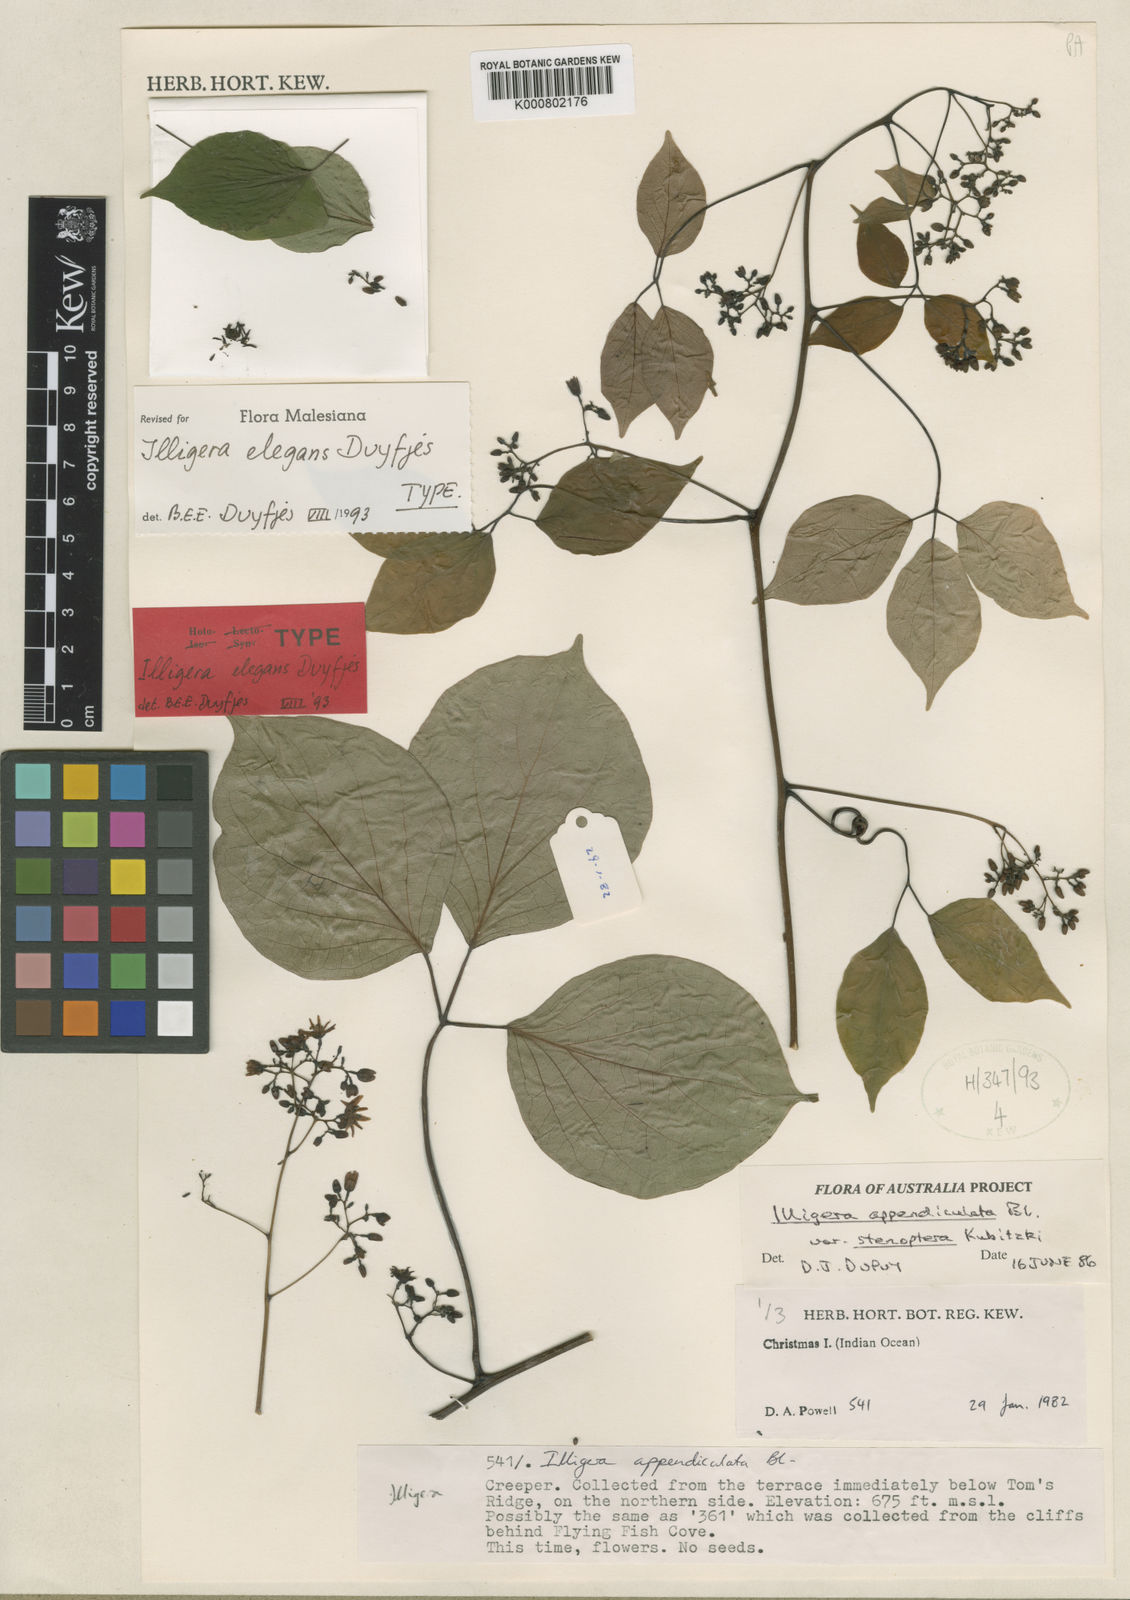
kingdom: Plantae
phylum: Tracheophyta
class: Magnoliopsida
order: Laurales
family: Hernandiaceae
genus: Illigera
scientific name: Illigera elegans
